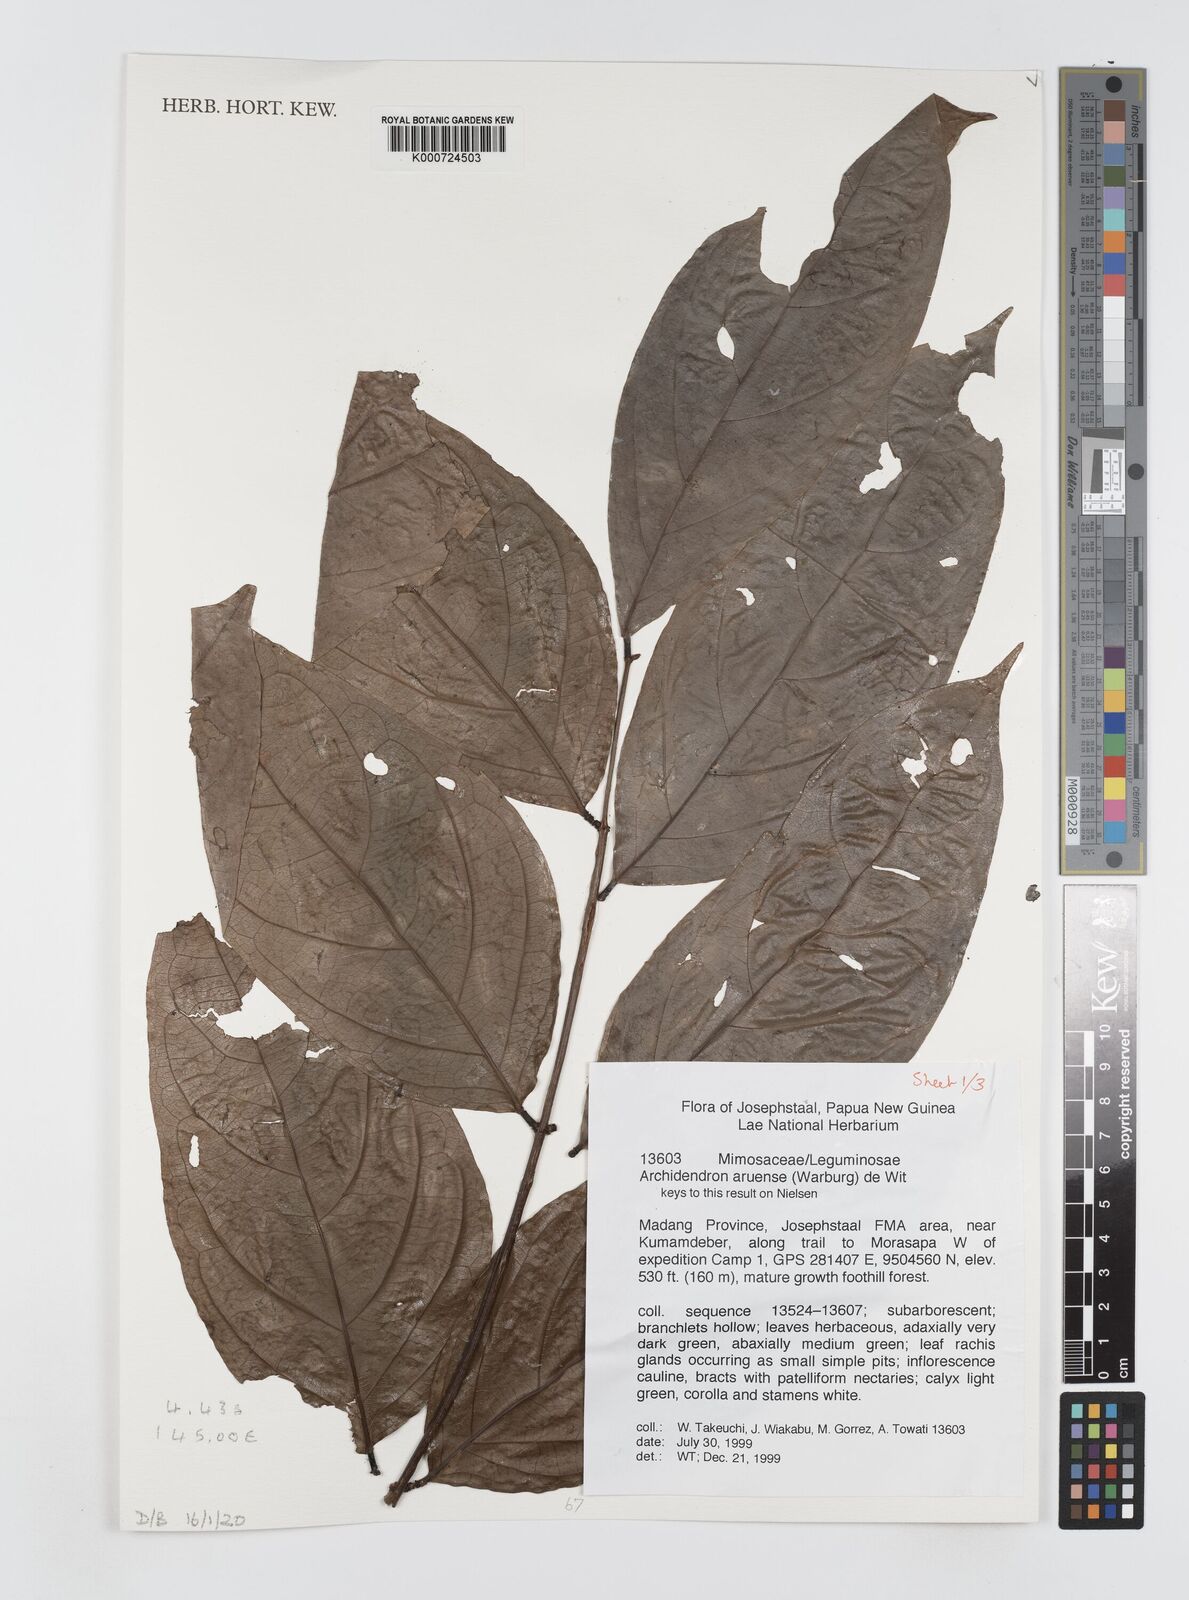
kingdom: Plantae
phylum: Tracheophyta
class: Magnoliopsida
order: Fabales
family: Fabaceae
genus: Archidendron
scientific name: Archidendron aruense
